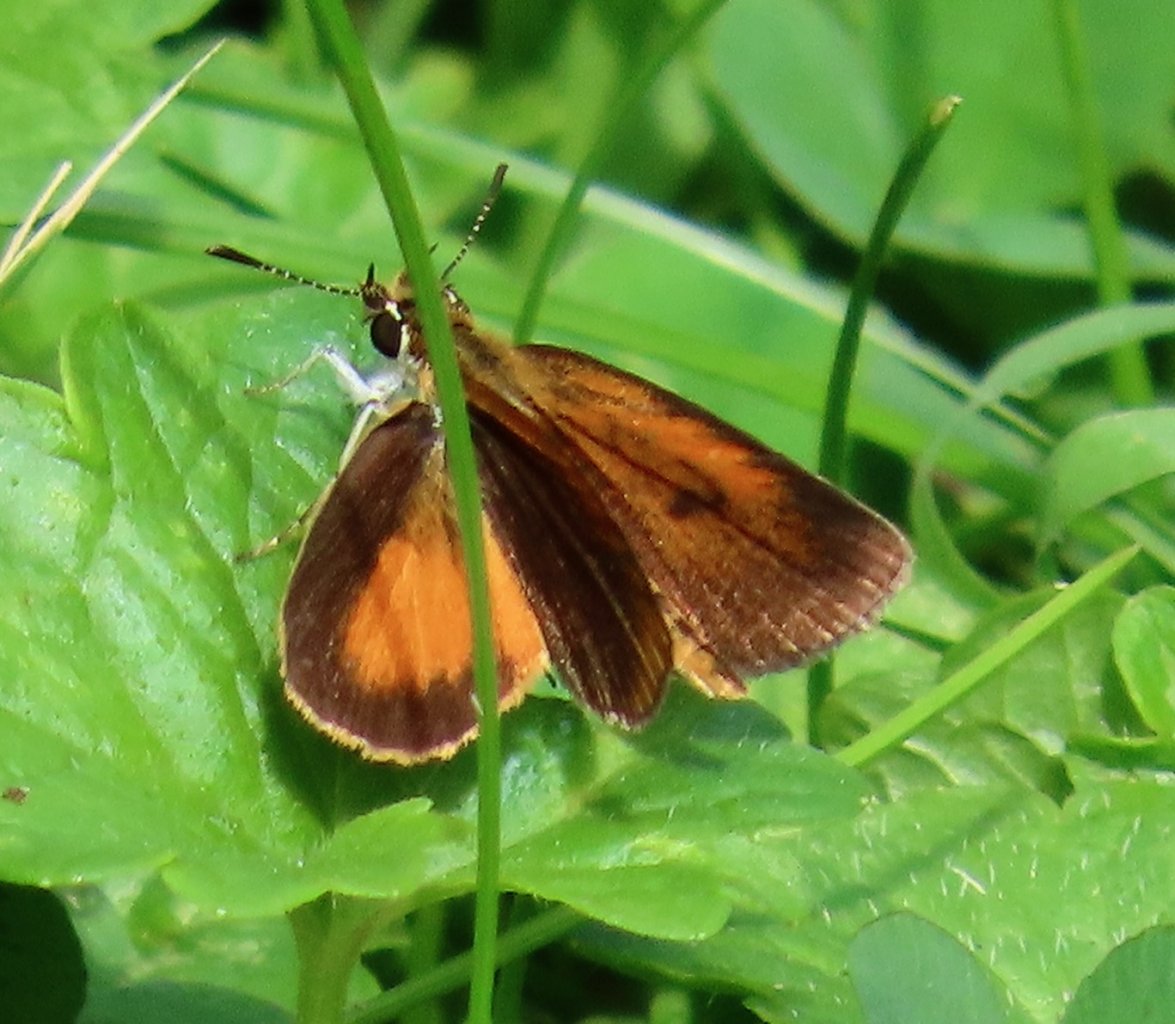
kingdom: Animalia
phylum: Arthropoda
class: Insecta
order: Lepidoptera
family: Hesperiidae
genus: Ancyloxypha
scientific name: Ancyloxypha numitor
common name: Least Skipper
